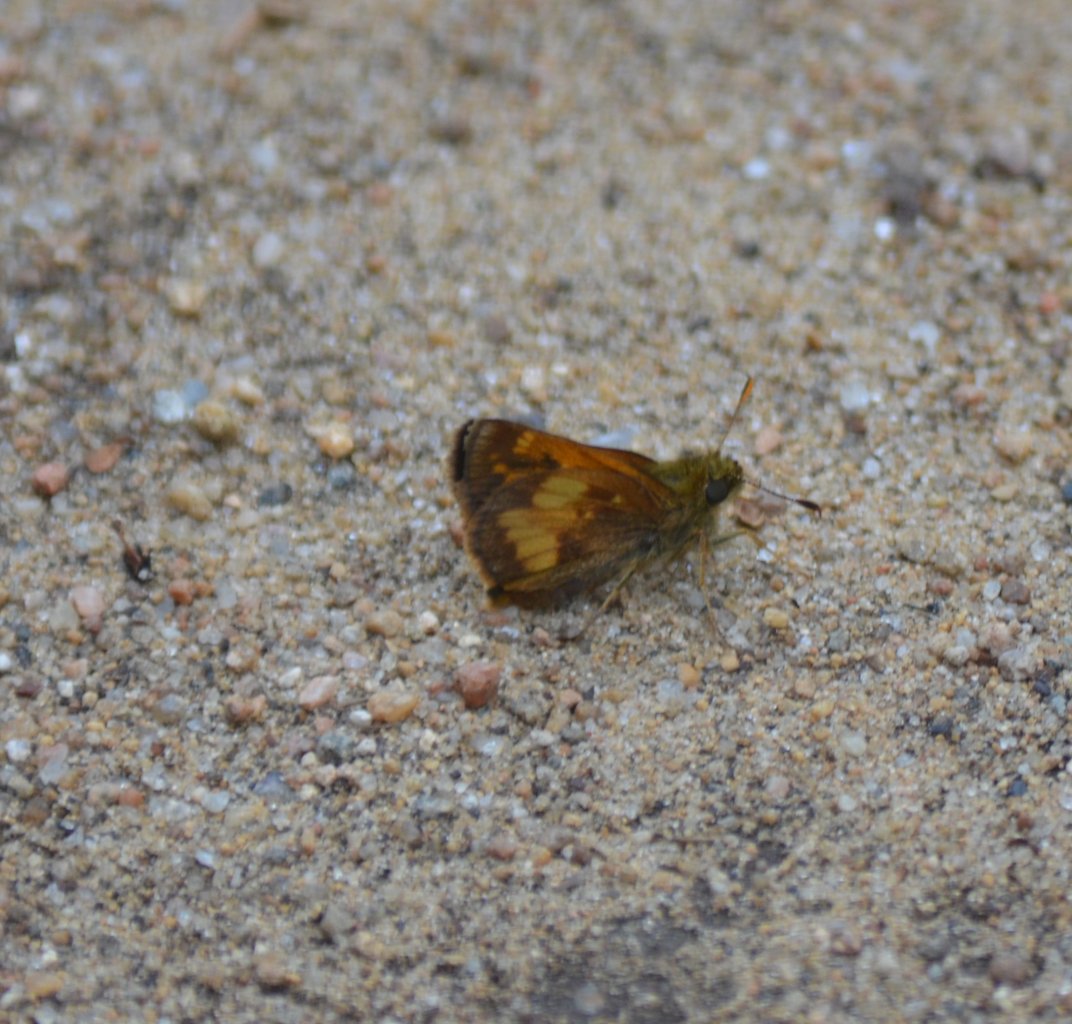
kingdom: Animalia
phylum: Arthropoda
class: Insecta
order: Lepidoptera
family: Hesperiidae
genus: Lon
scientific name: Lon hobomok
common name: Hobomok Skipper
